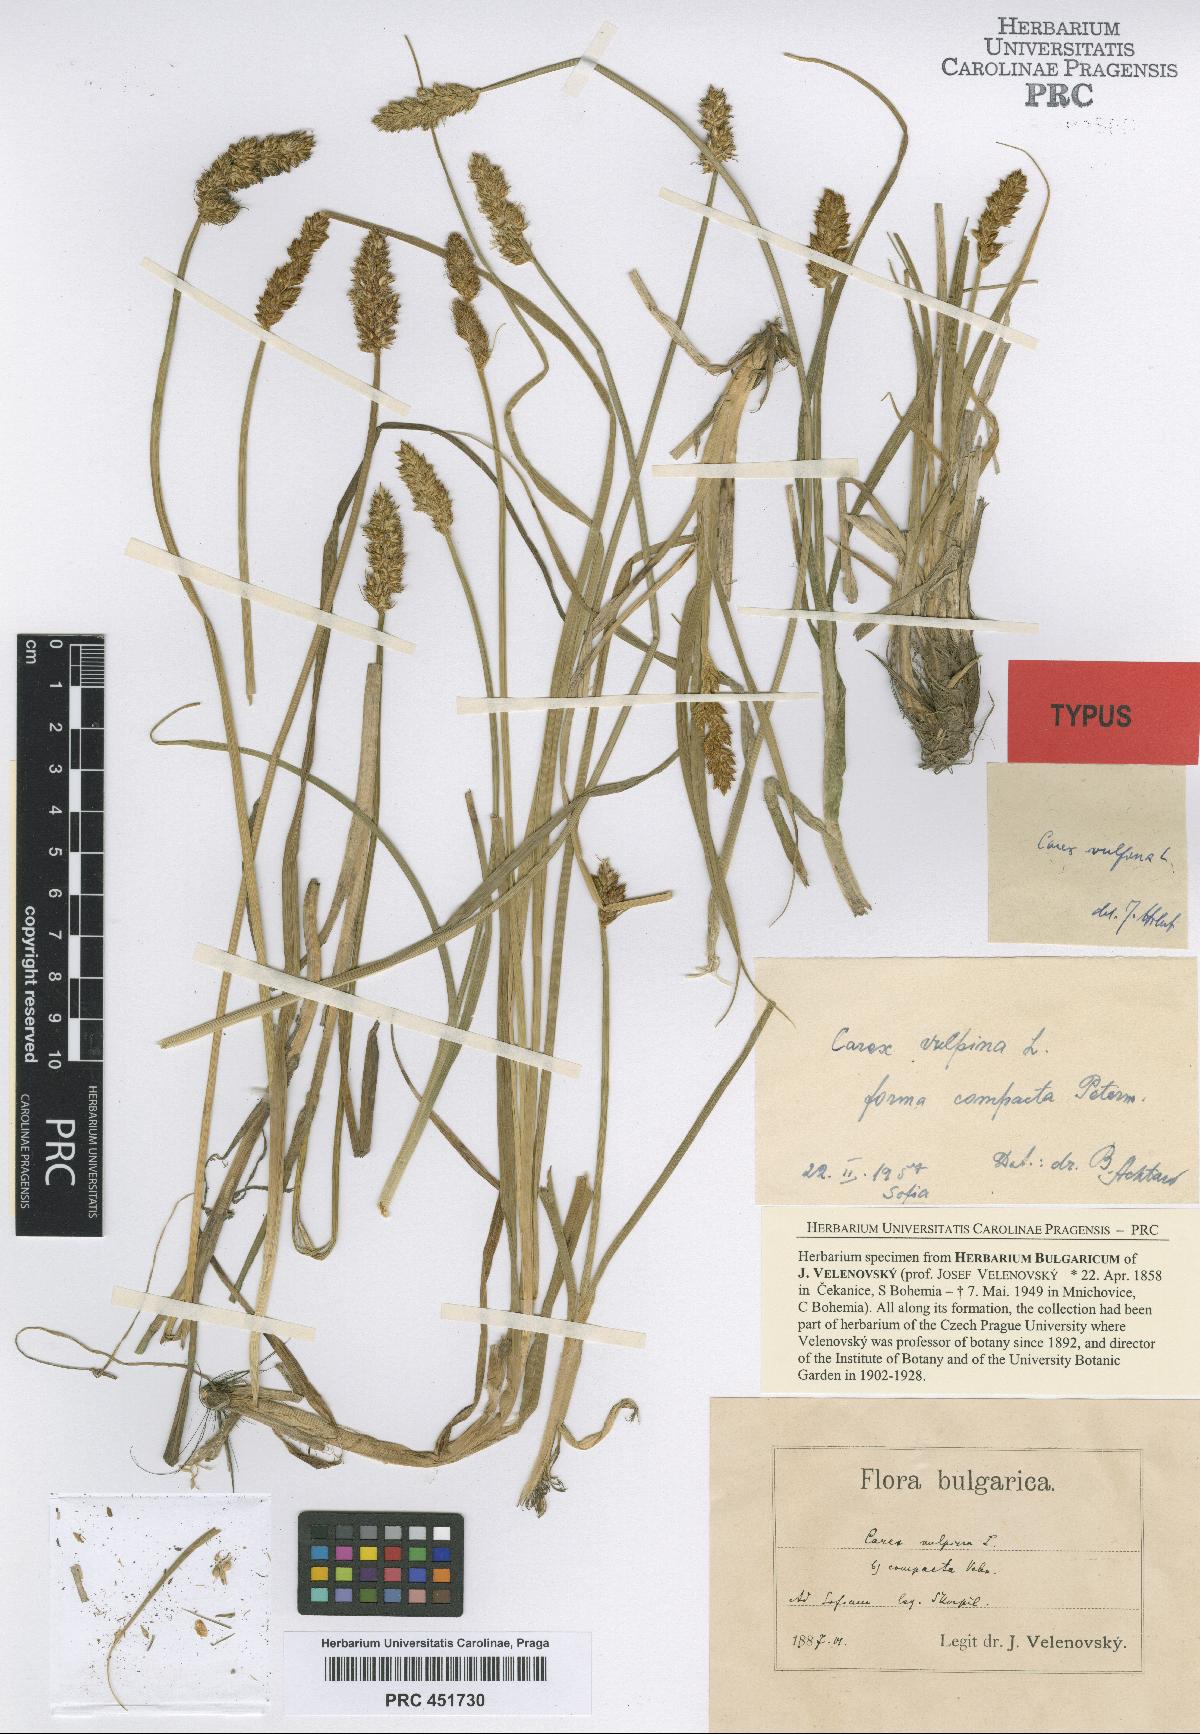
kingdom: Plantae
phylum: Tracheophyta
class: Liliopsida
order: Poales
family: Cyperaceae
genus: Carex
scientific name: Carex vulpina
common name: True fox-sedge
